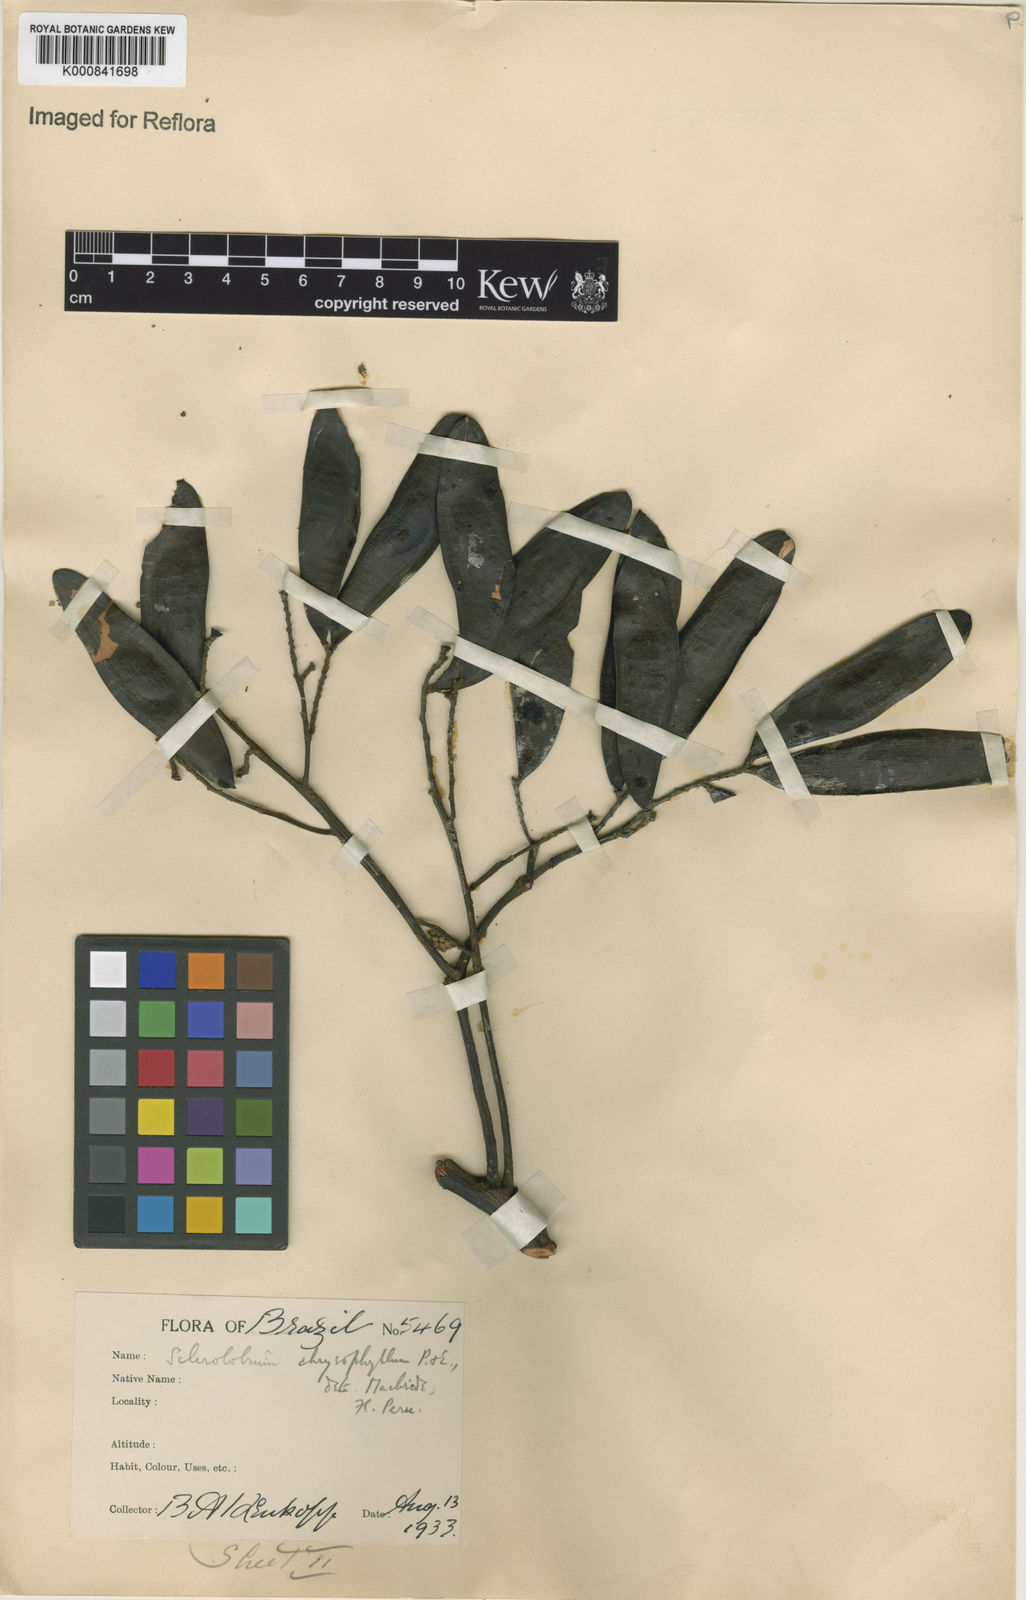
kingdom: Plantae
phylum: Tracheophyta
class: Magnoliopsida
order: Fabales
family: Fabaceae
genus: Tachigali
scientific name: Tachigali macbridei
